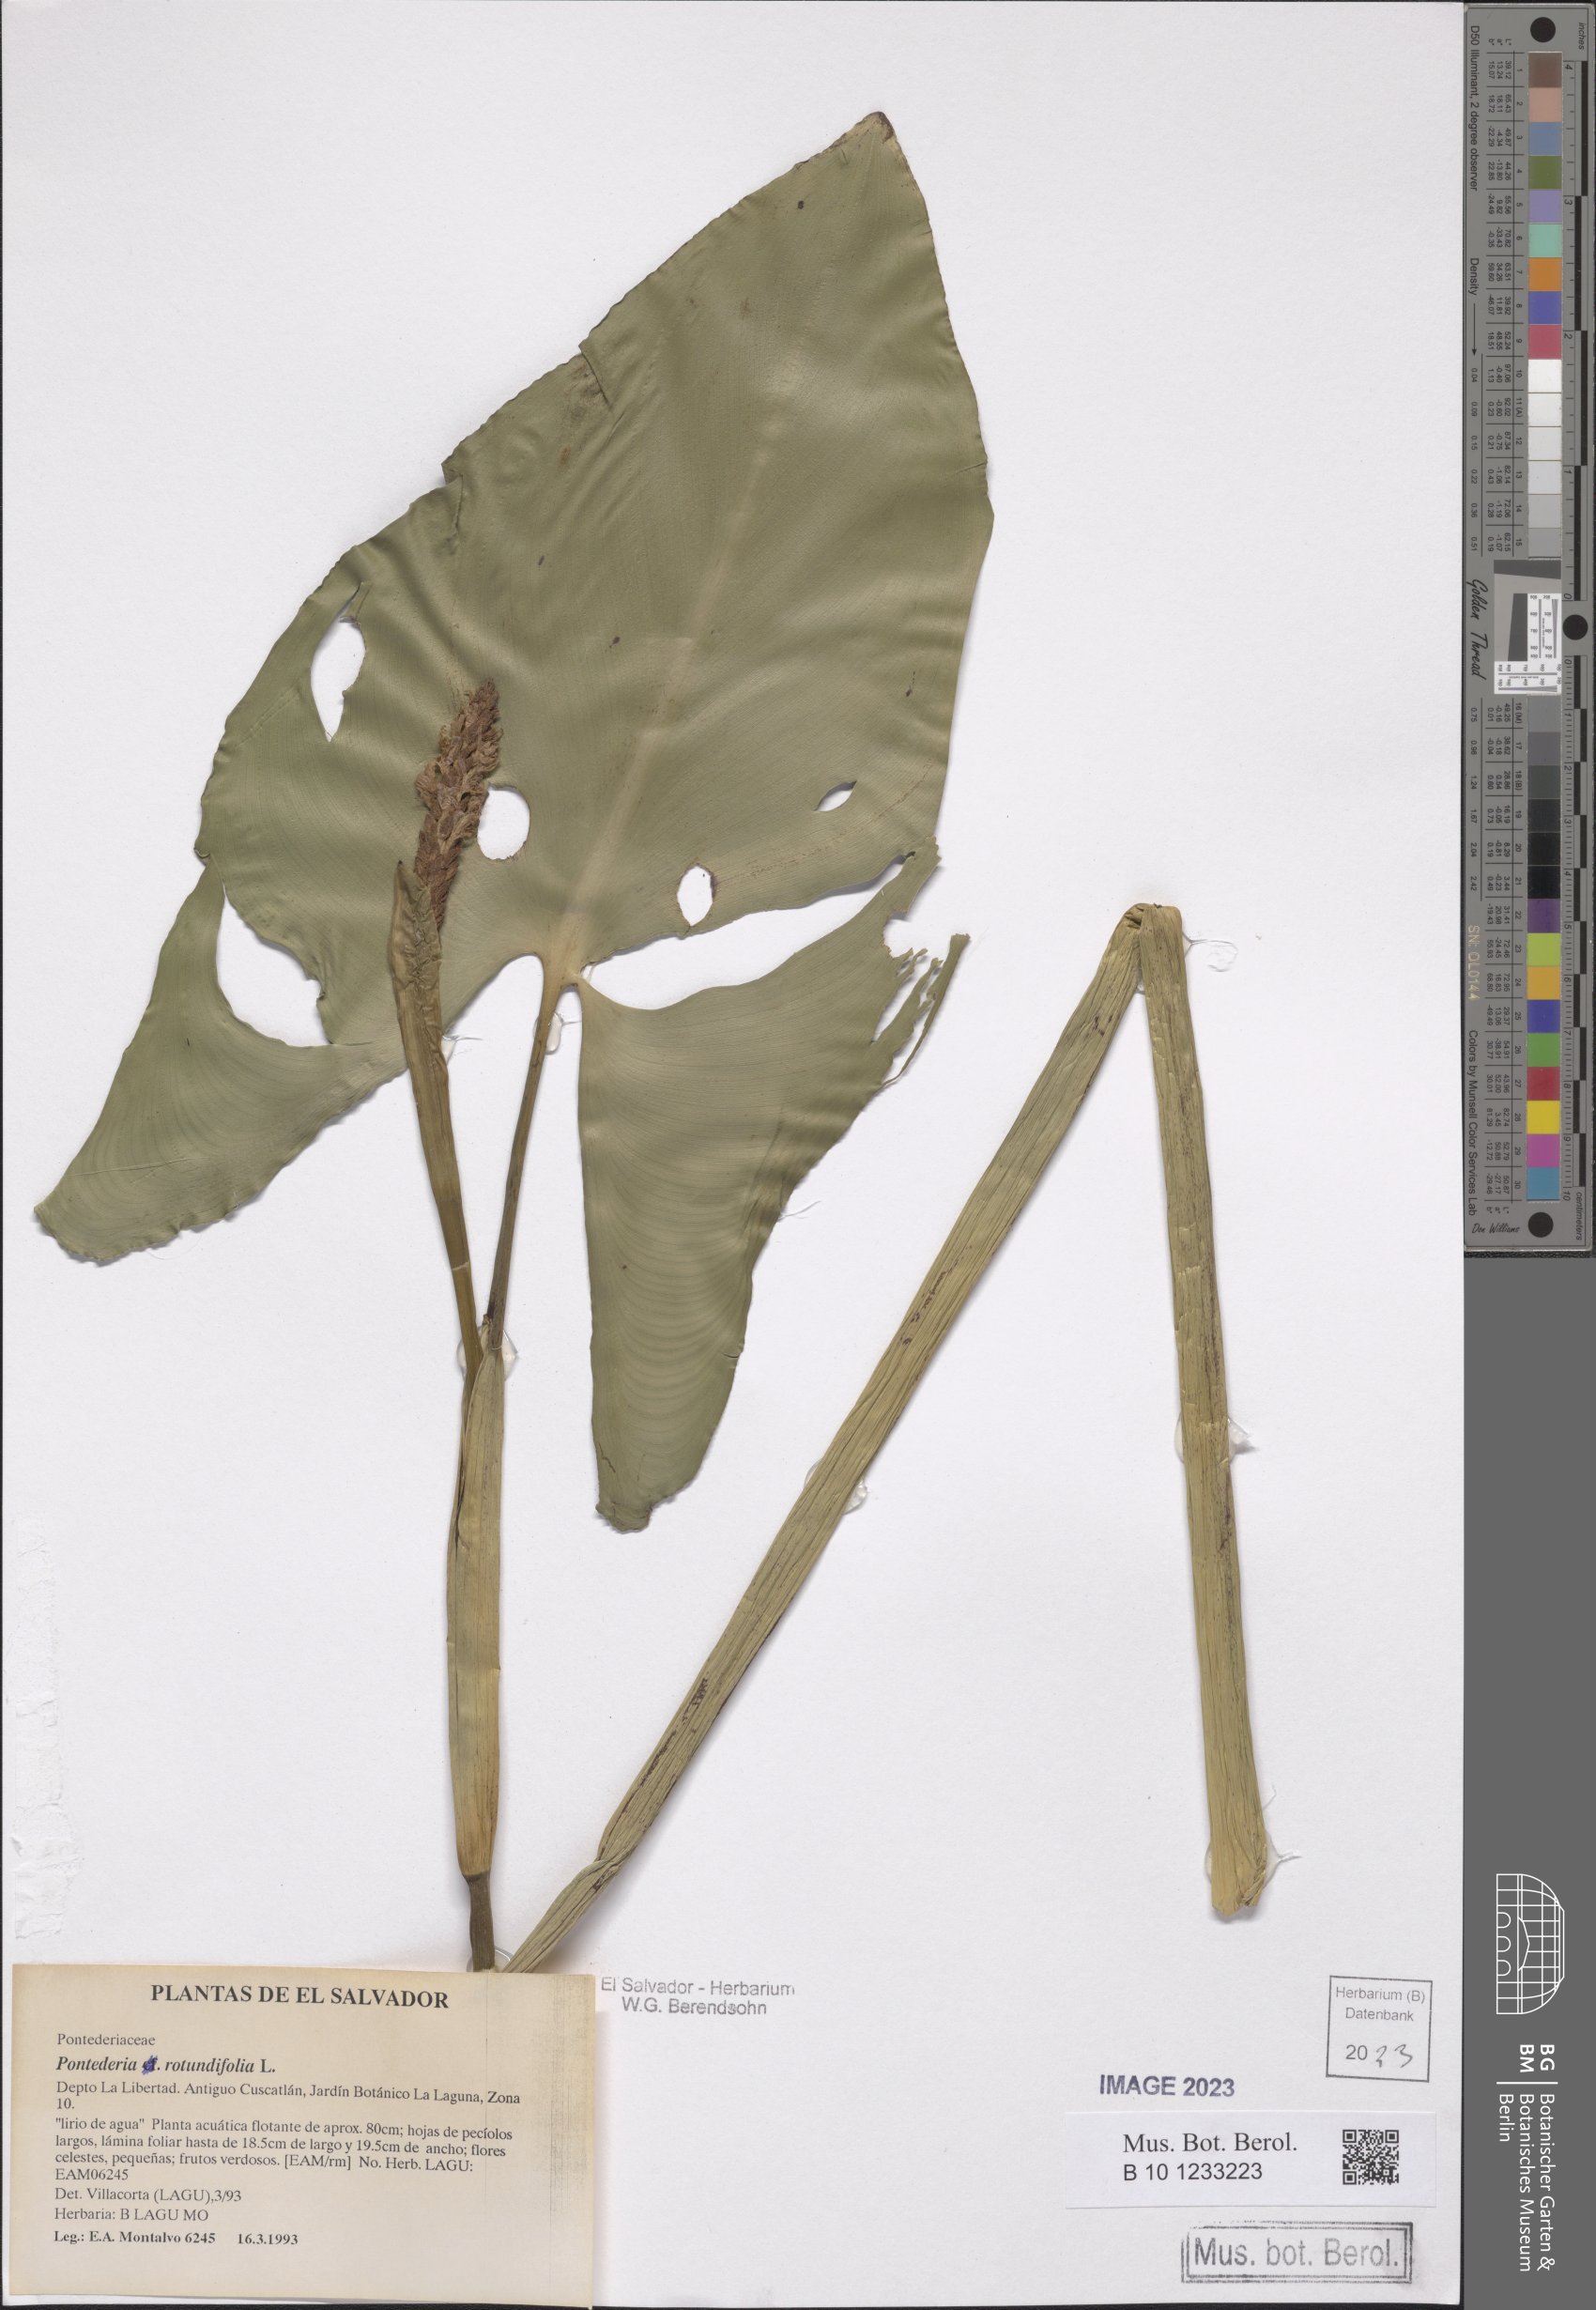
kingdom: Plantae
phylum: Tracheophyta
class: Liliopsida
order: Commelinales
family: Pontederiaceae
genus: Pontederia
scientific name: Pontederia rotundifolia
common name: Tropical pickerel-weed
